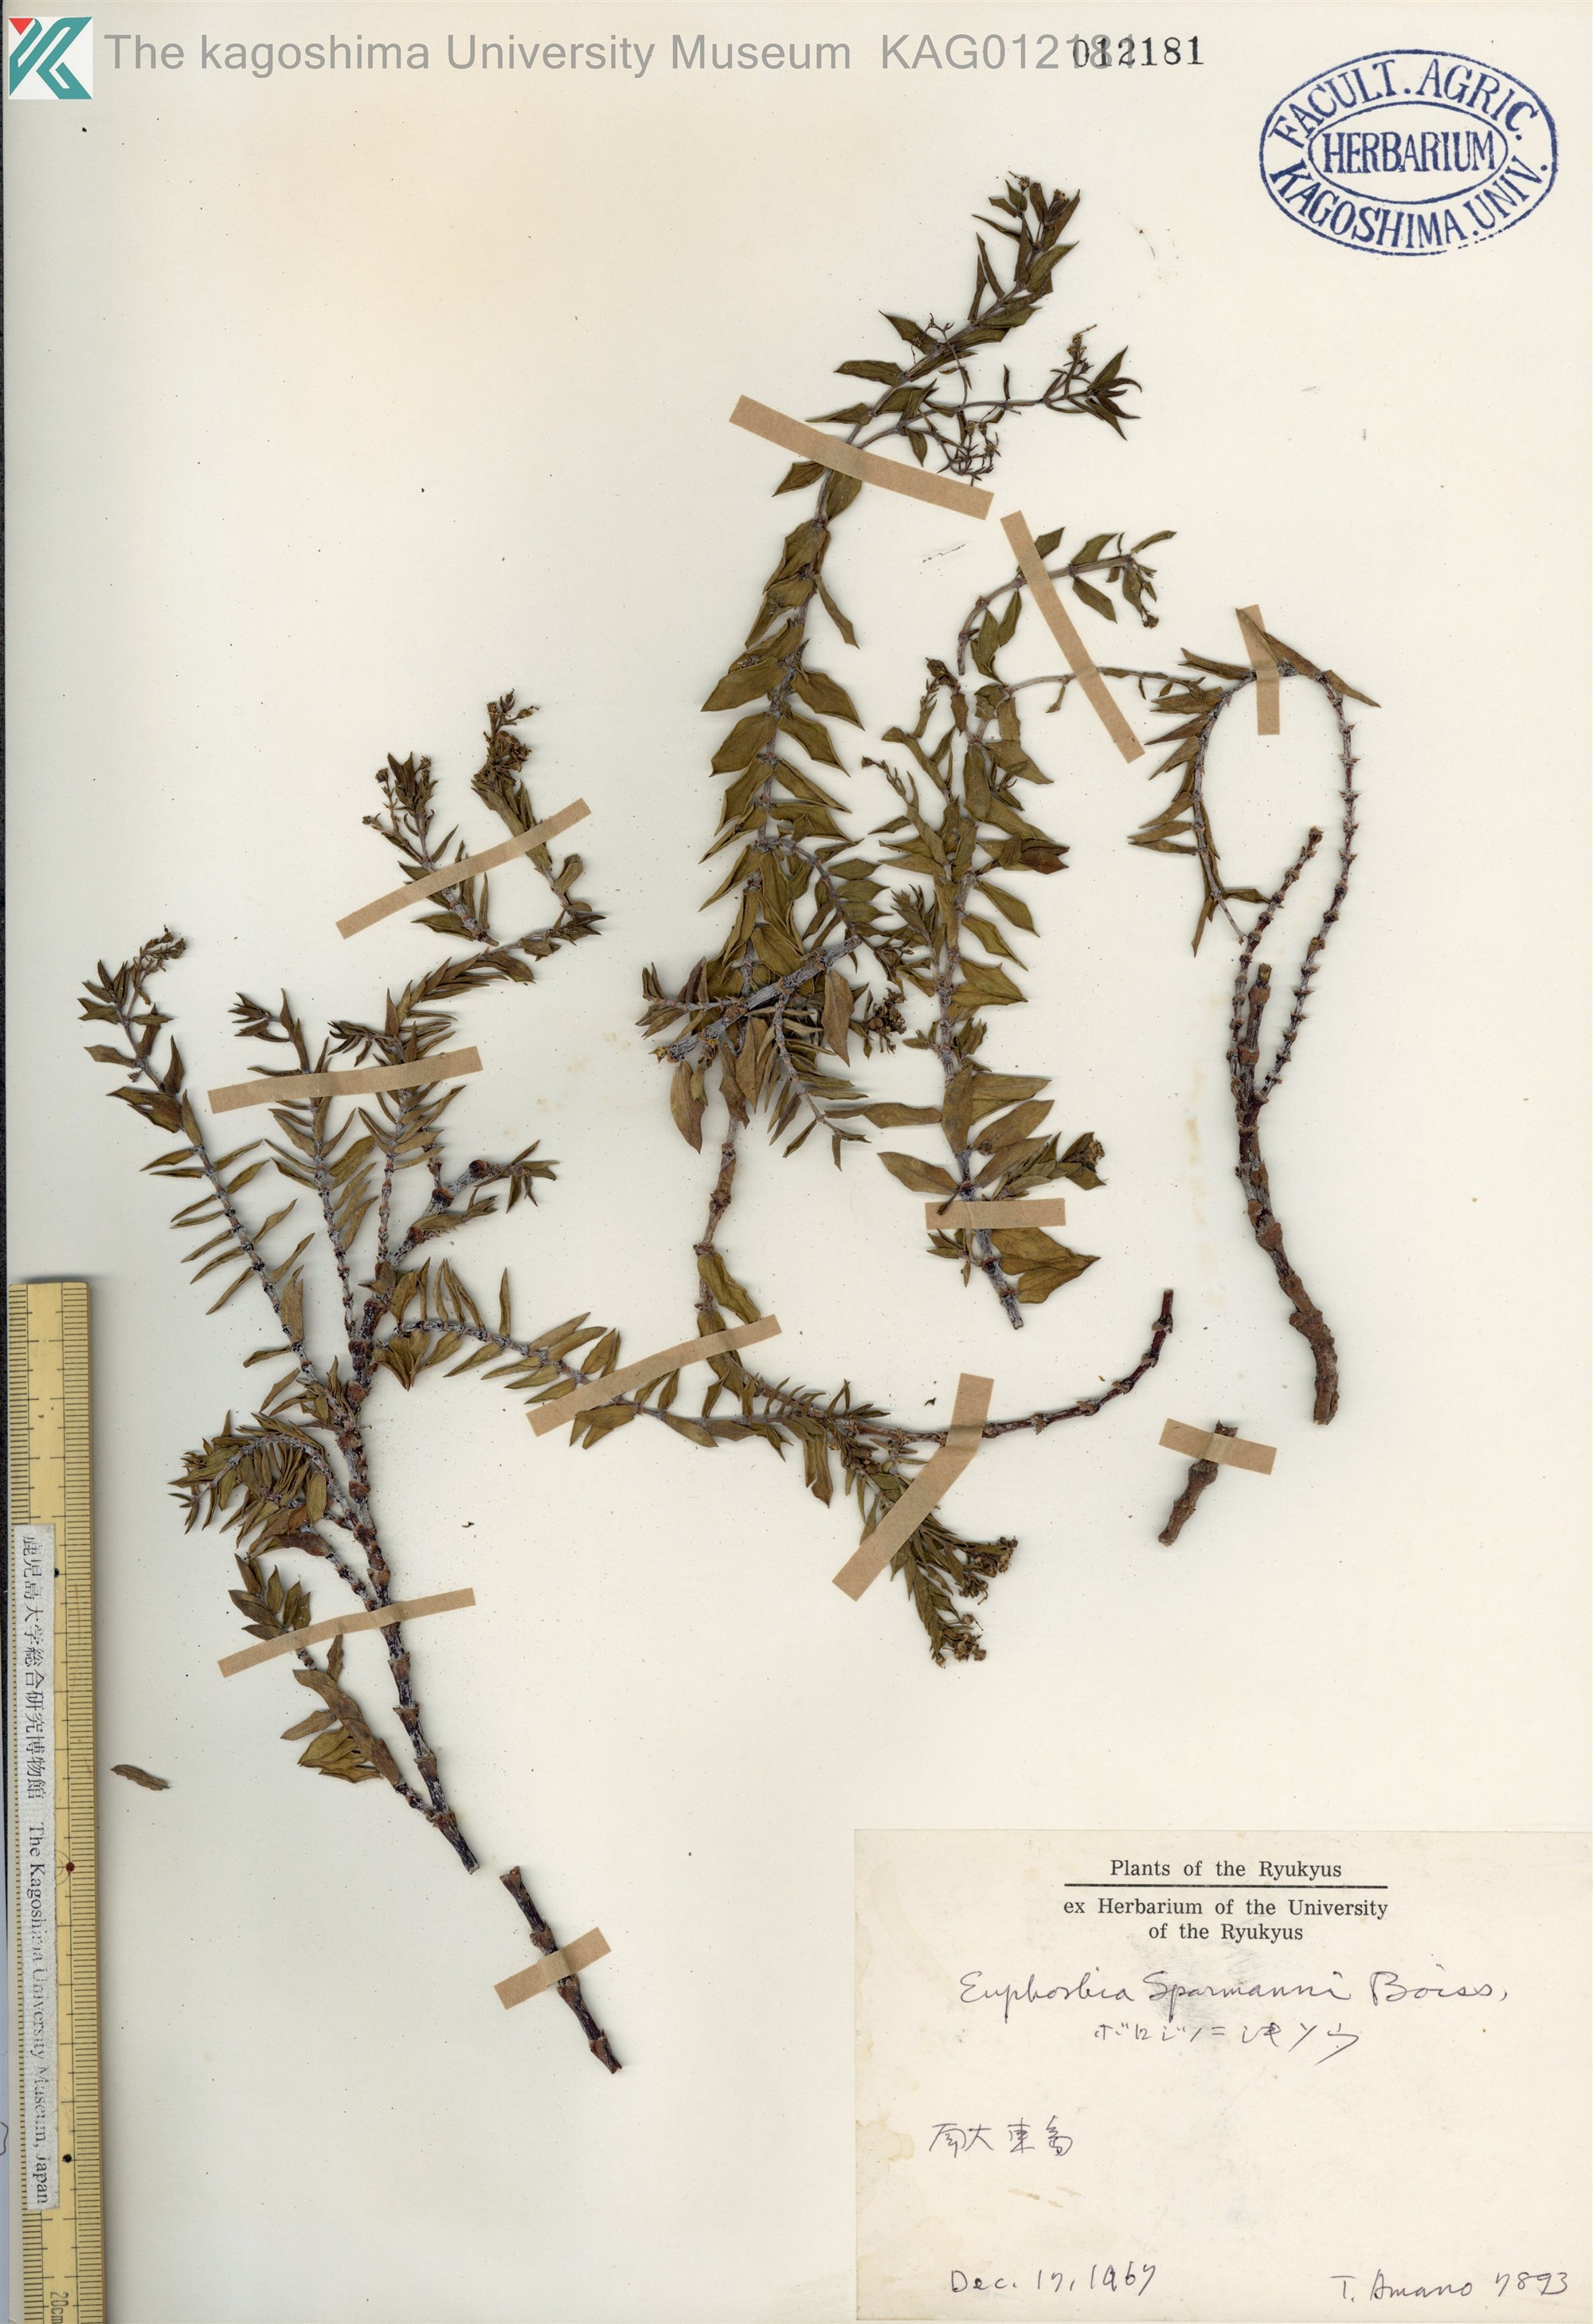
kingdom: Plantae
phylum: Tracheophyta
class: Magnoliopsida
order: Malpighiales
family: Euphorbiaceae
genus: Euphorbia
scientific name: Euphorbia sparrmanni
